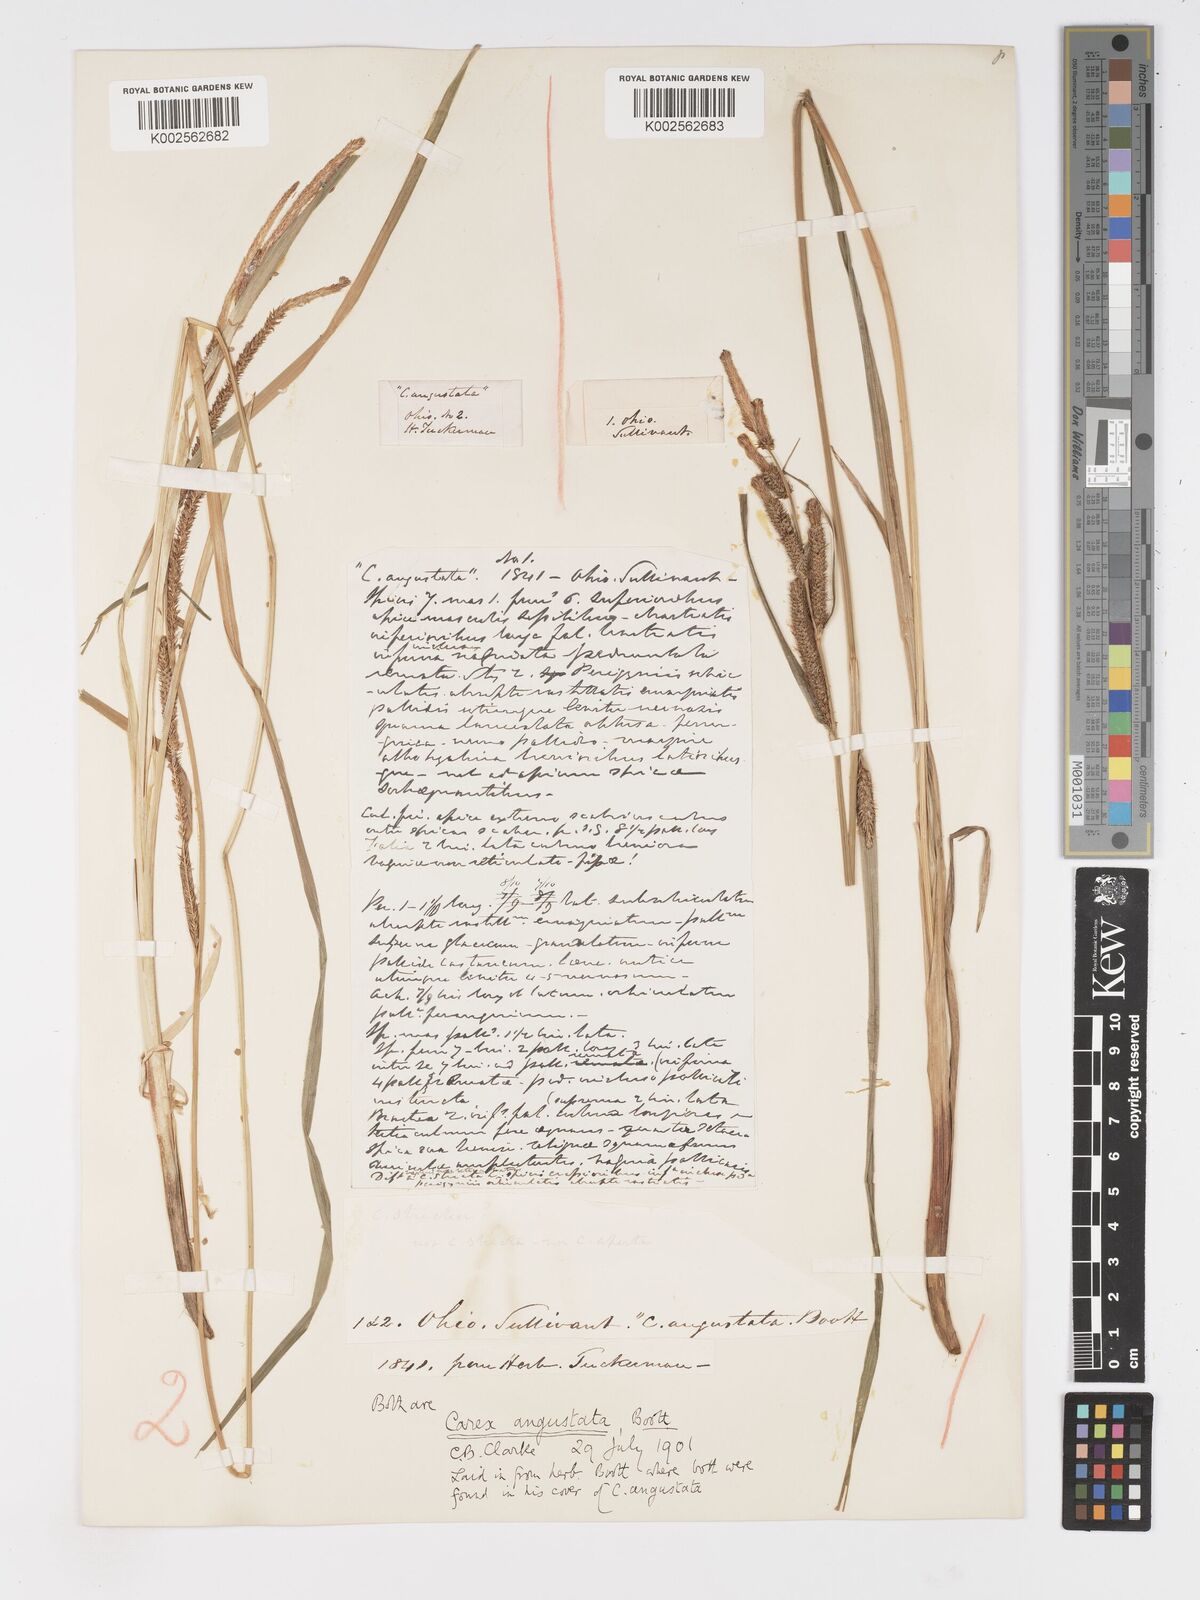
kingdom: Plantae
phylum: Tracheophyta
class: Liliopsida
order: Poales
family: Cyperaceae
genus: Carex
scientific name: Carex stricta
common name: Hummock sedge
